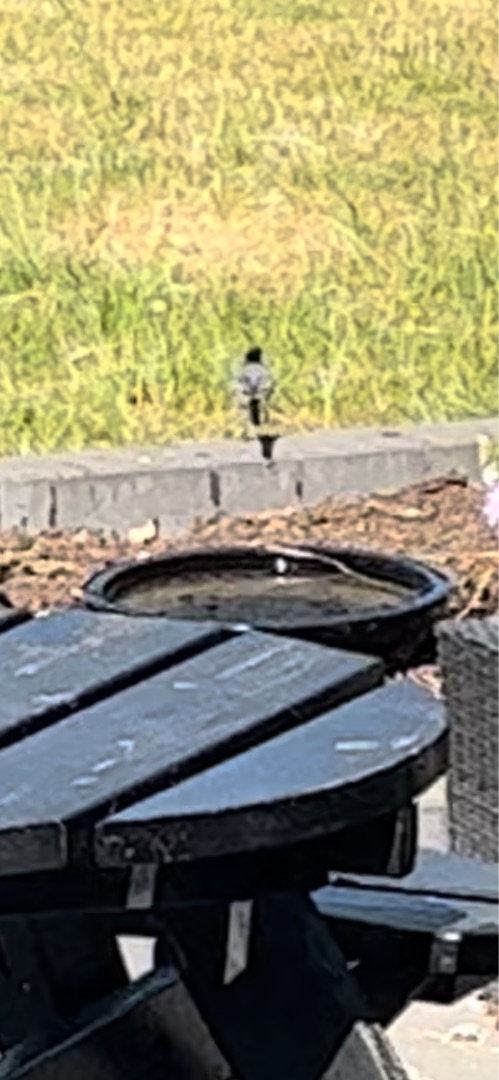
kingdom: Animalia
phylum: Chordata
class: Aves
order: Passeriformes
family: Motacillidae
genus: Motacilla
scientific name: Motacilla alba
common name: Hvid vipstjert
